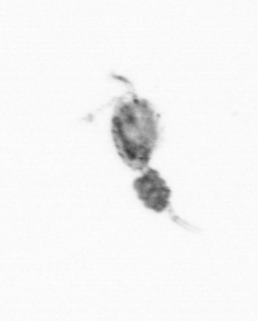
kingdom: Animalia
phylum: Arthropoda
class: Copepoda
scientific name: Copepoda
